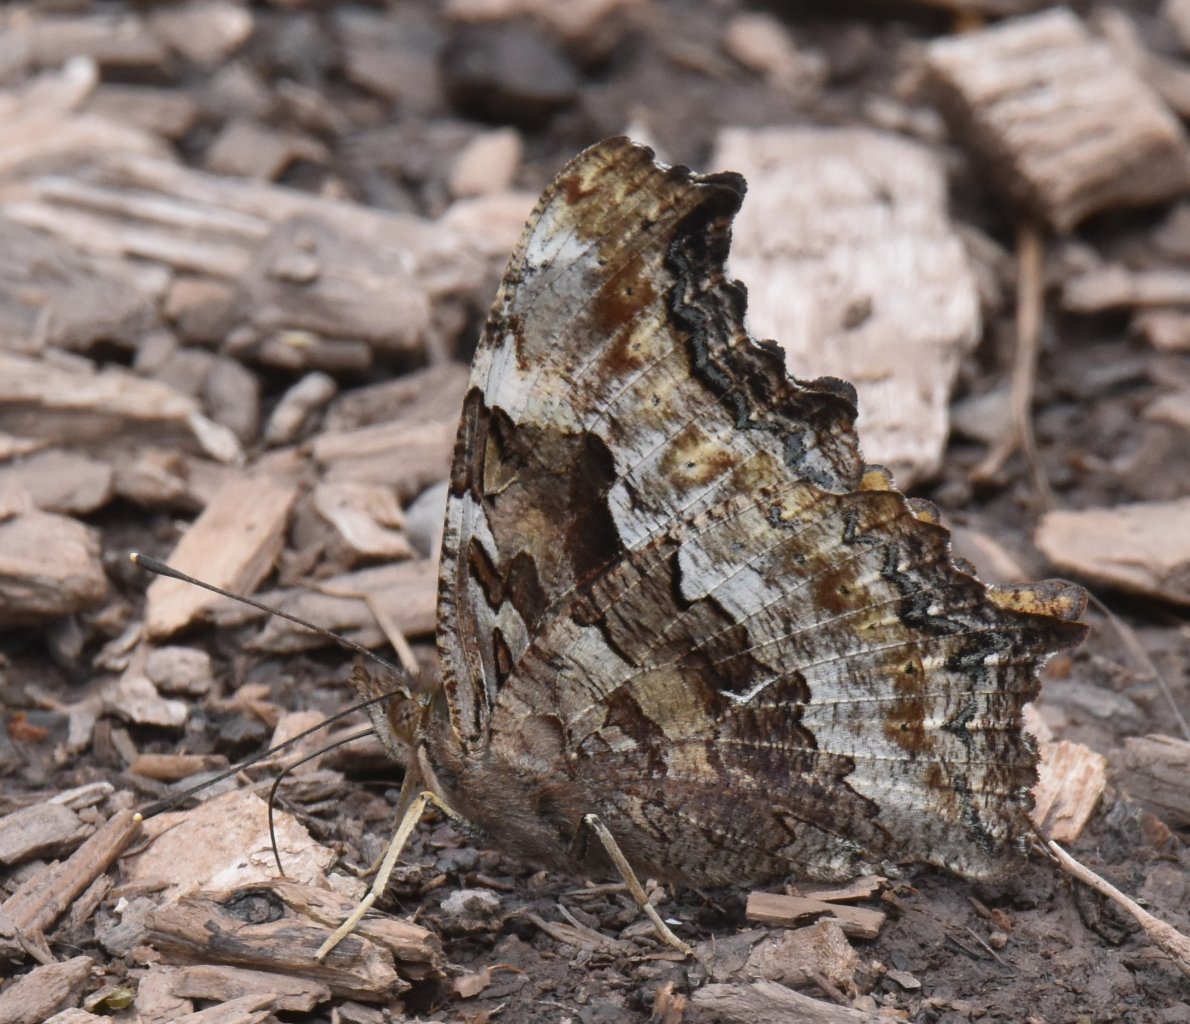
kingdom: Animalia
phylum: Arthropoda
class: Insecta
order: Lepidoptera
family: Nymphalidae
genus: Polygonia
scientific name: Polygonia vaualbum
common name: Compton Tortoiseshell
